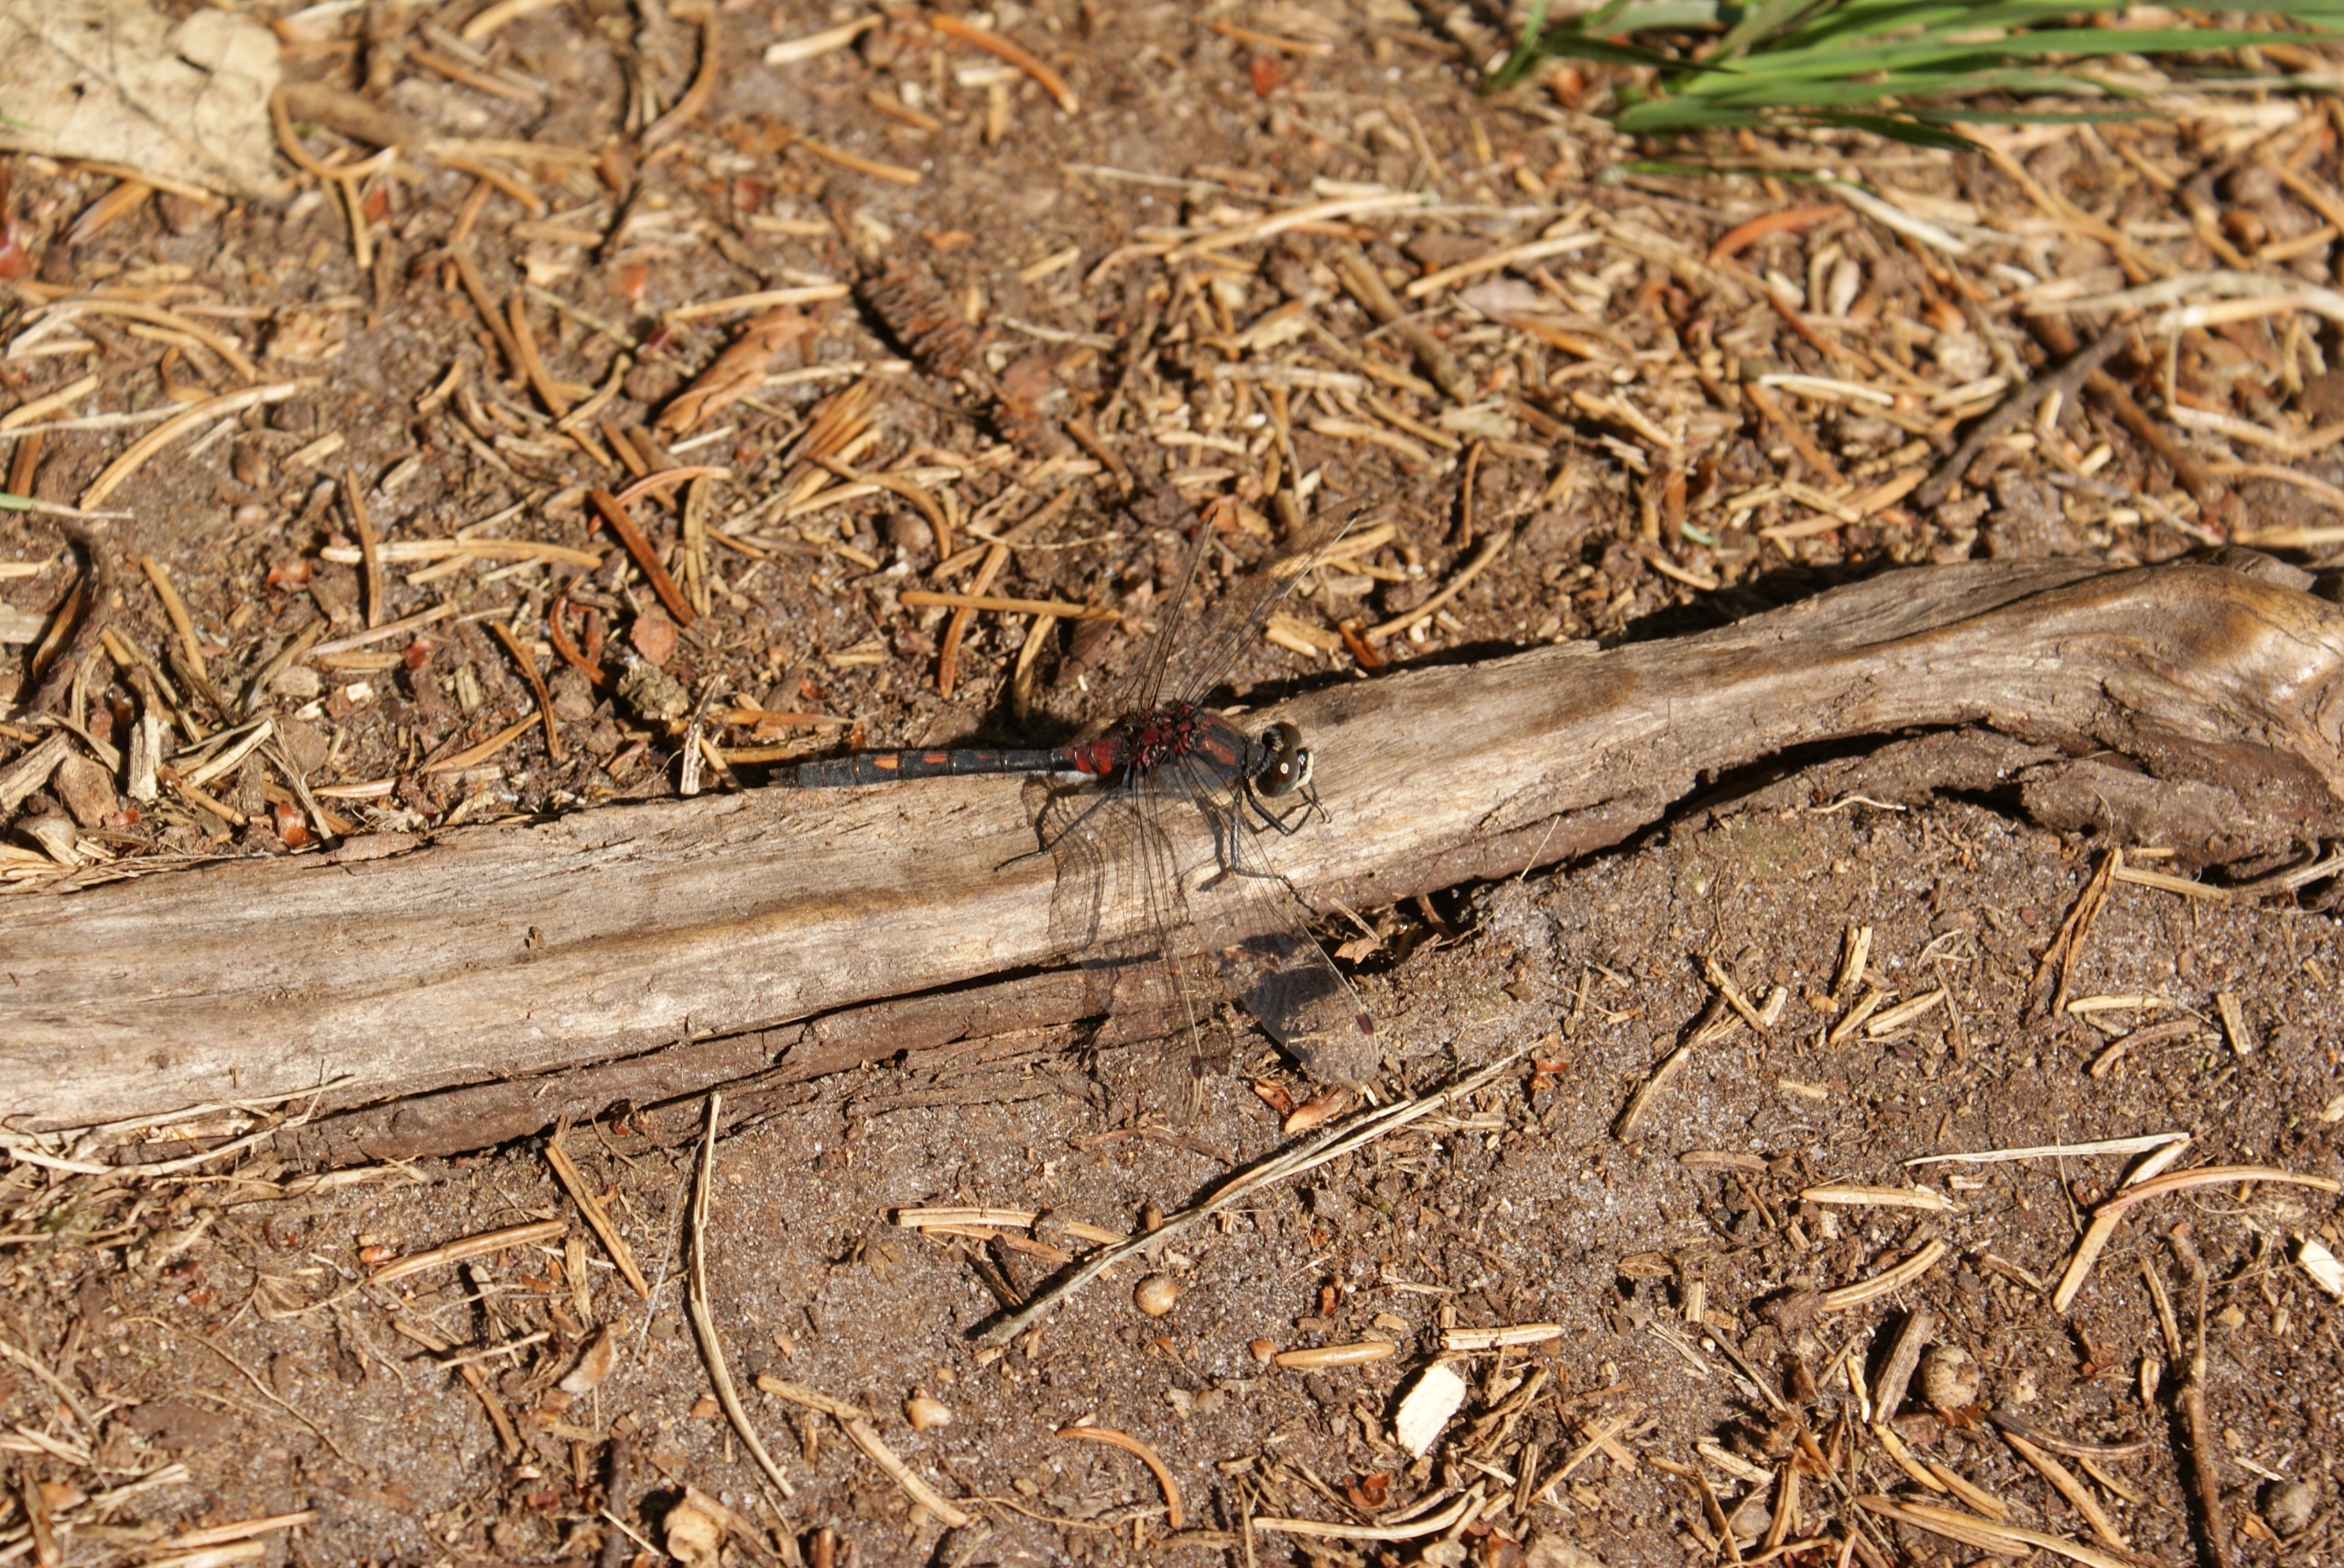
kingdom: Animalia
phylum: Arthropoda
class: Insecta
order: Odonata
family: Libellulidae
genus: Leucorrhinia
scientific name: Leucorrhinia dubia
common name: Lille kærguldsmed
